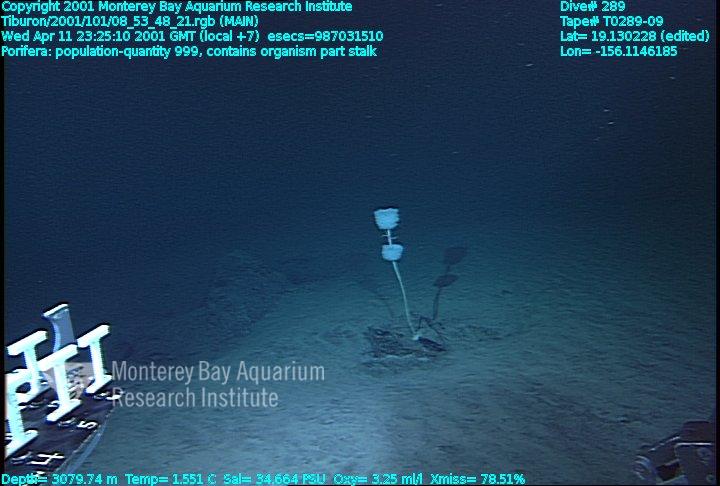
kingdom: Animalia
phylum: Porifera
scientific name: Porifera
